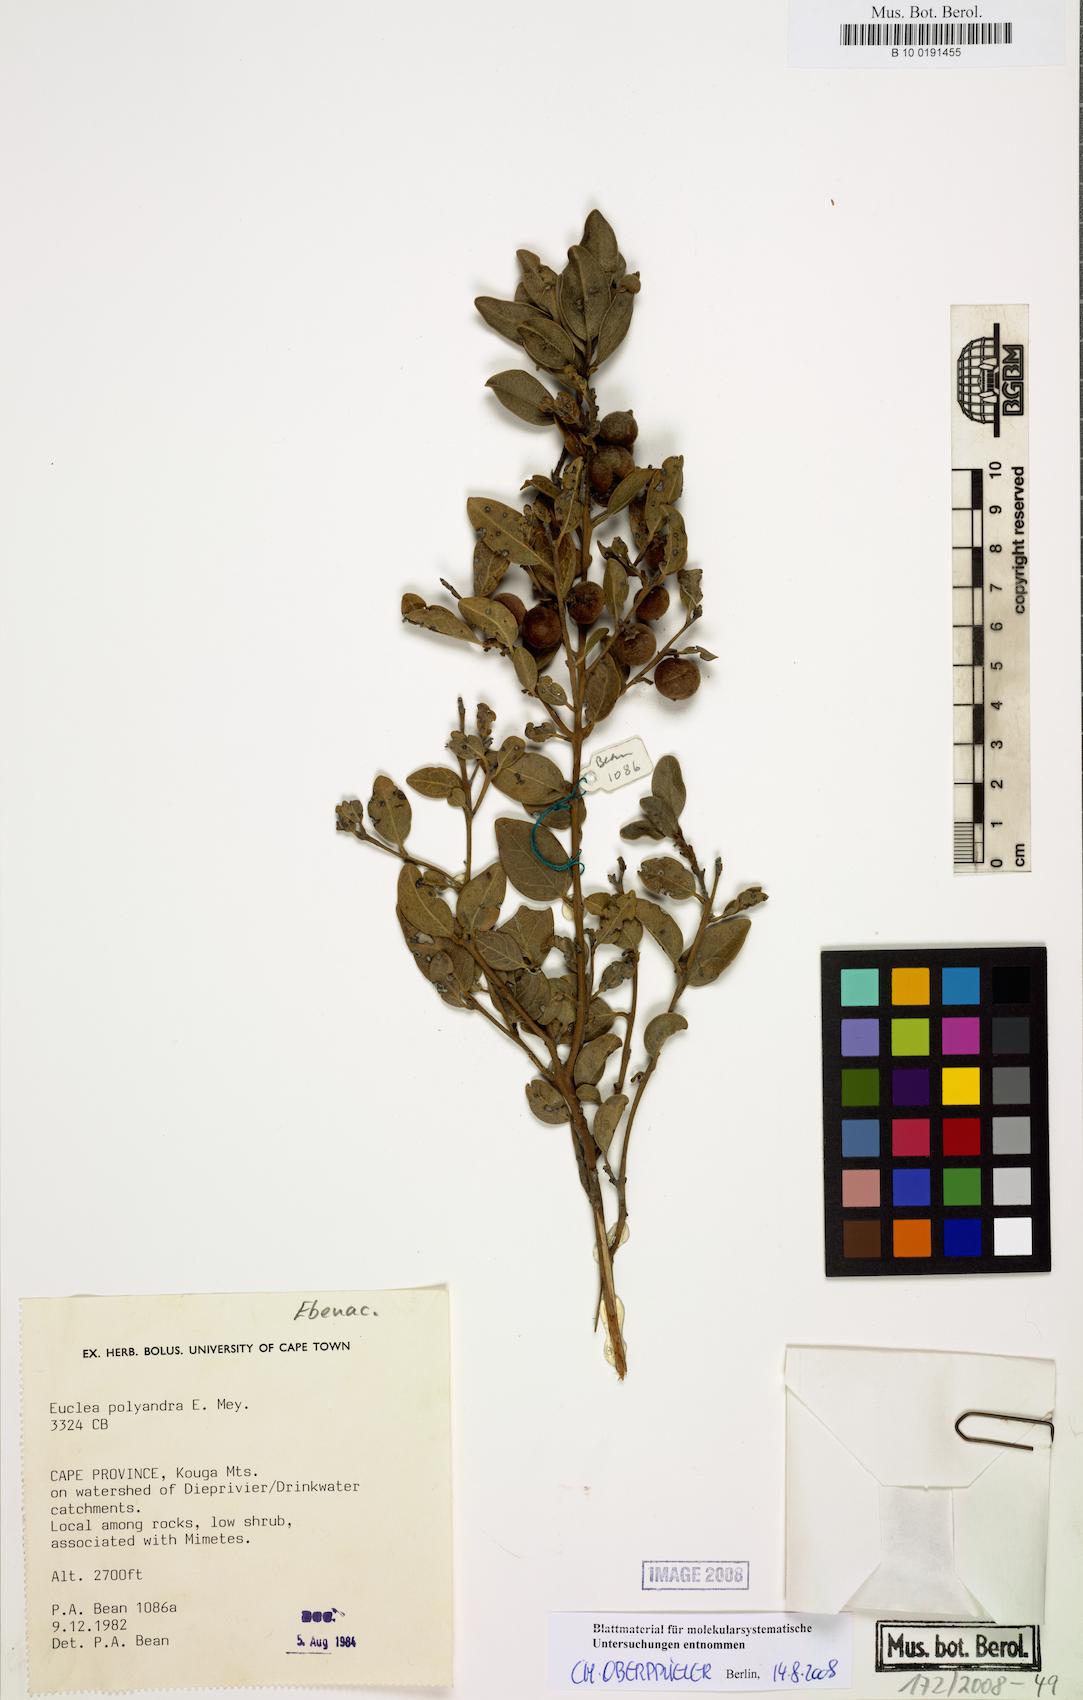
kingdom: Plantae
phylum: Tracheophyta
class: Magnoliopsida
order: Ericales
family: Ebenaceae
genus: Euclea
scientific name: Euclea polyandra
